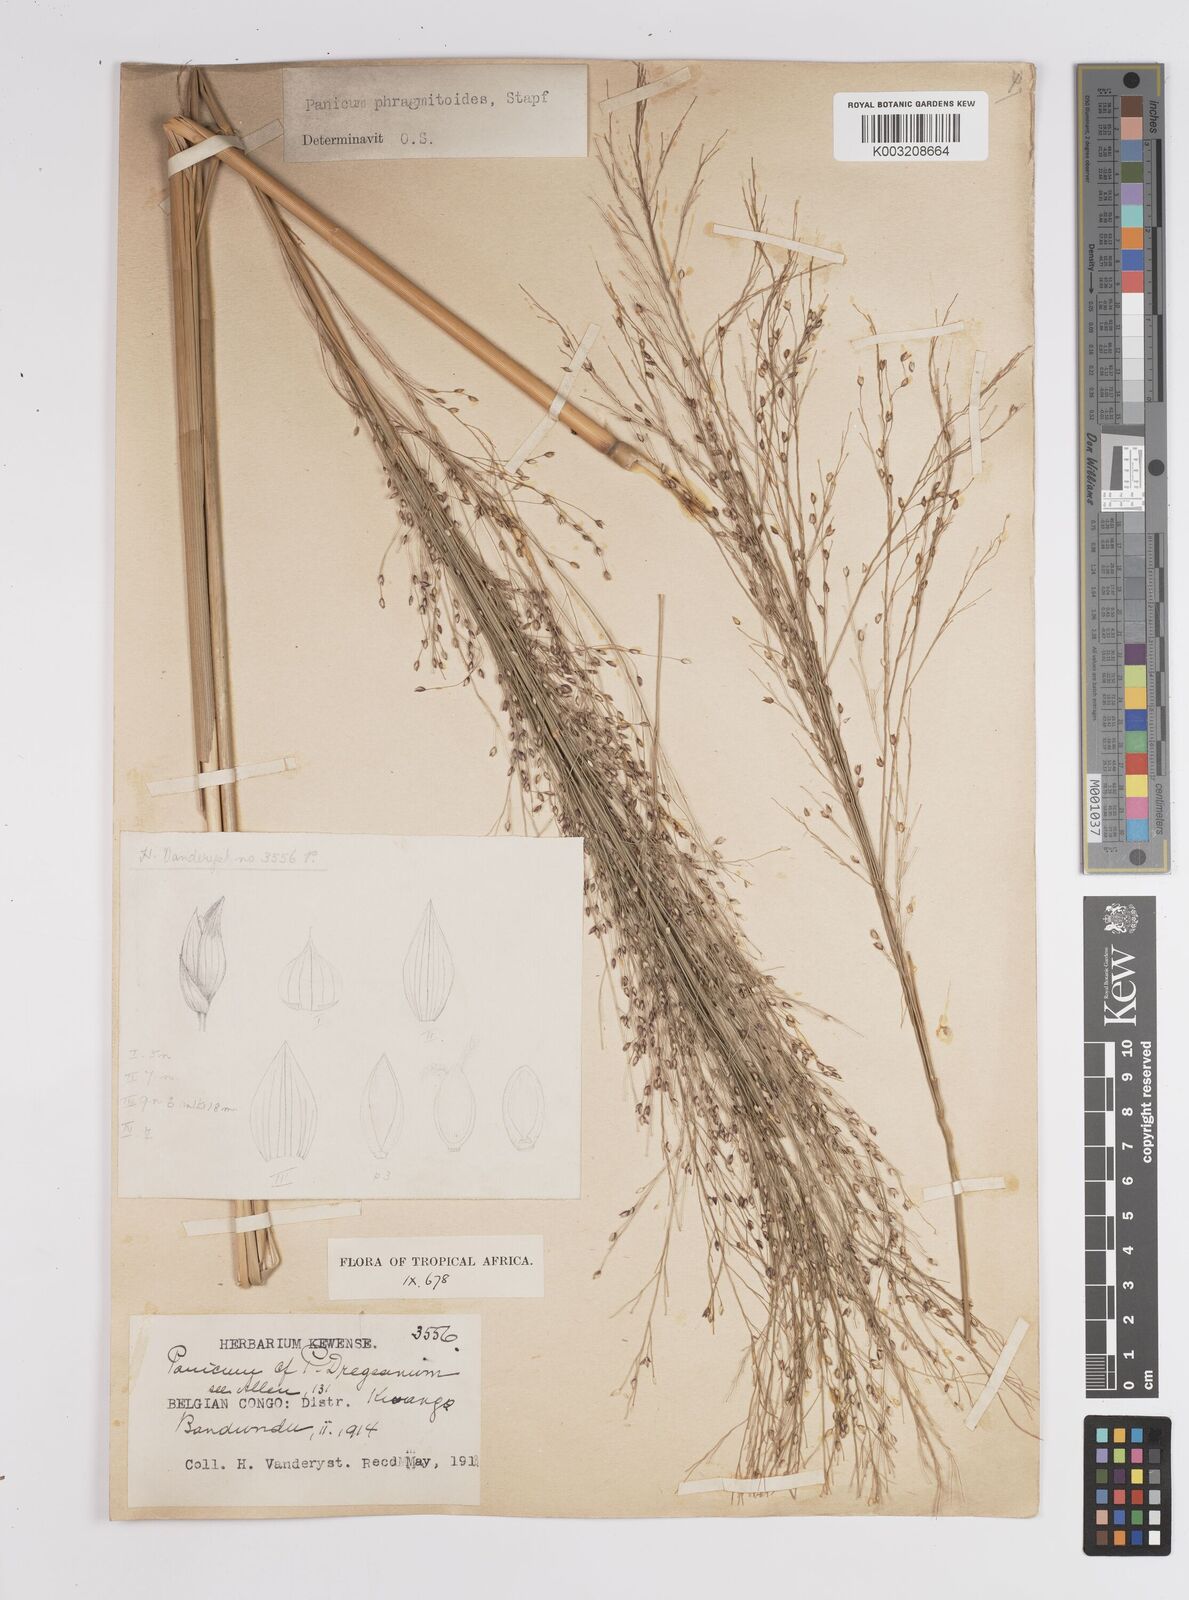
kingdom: Plantae
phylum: Tracheophyta
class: Liliopsida
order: Poales
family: Poaceae
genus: Panicum
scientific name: Panicum phragmitoides
